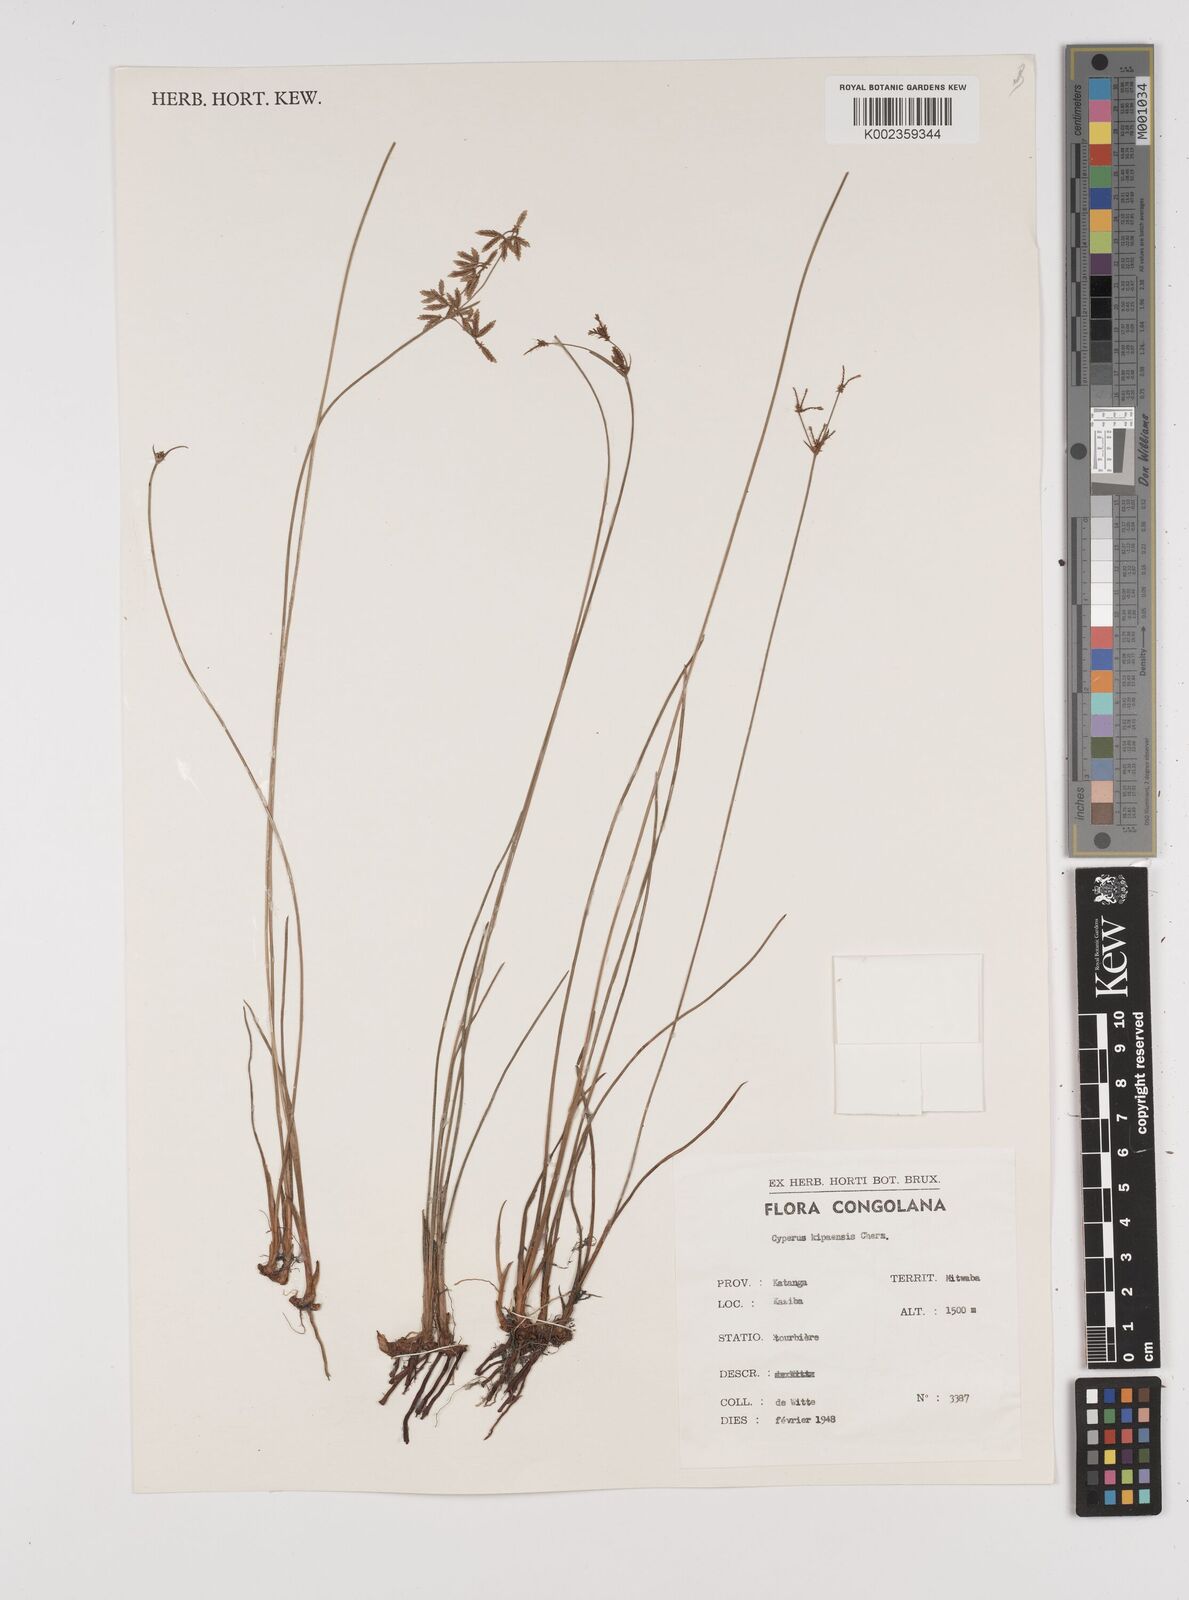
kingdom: Plantae
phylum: Tracheophyta
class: Liliopsida
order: Poales
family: Cyperaceae
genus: Cyperus
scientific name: Cyperus kipasensis
